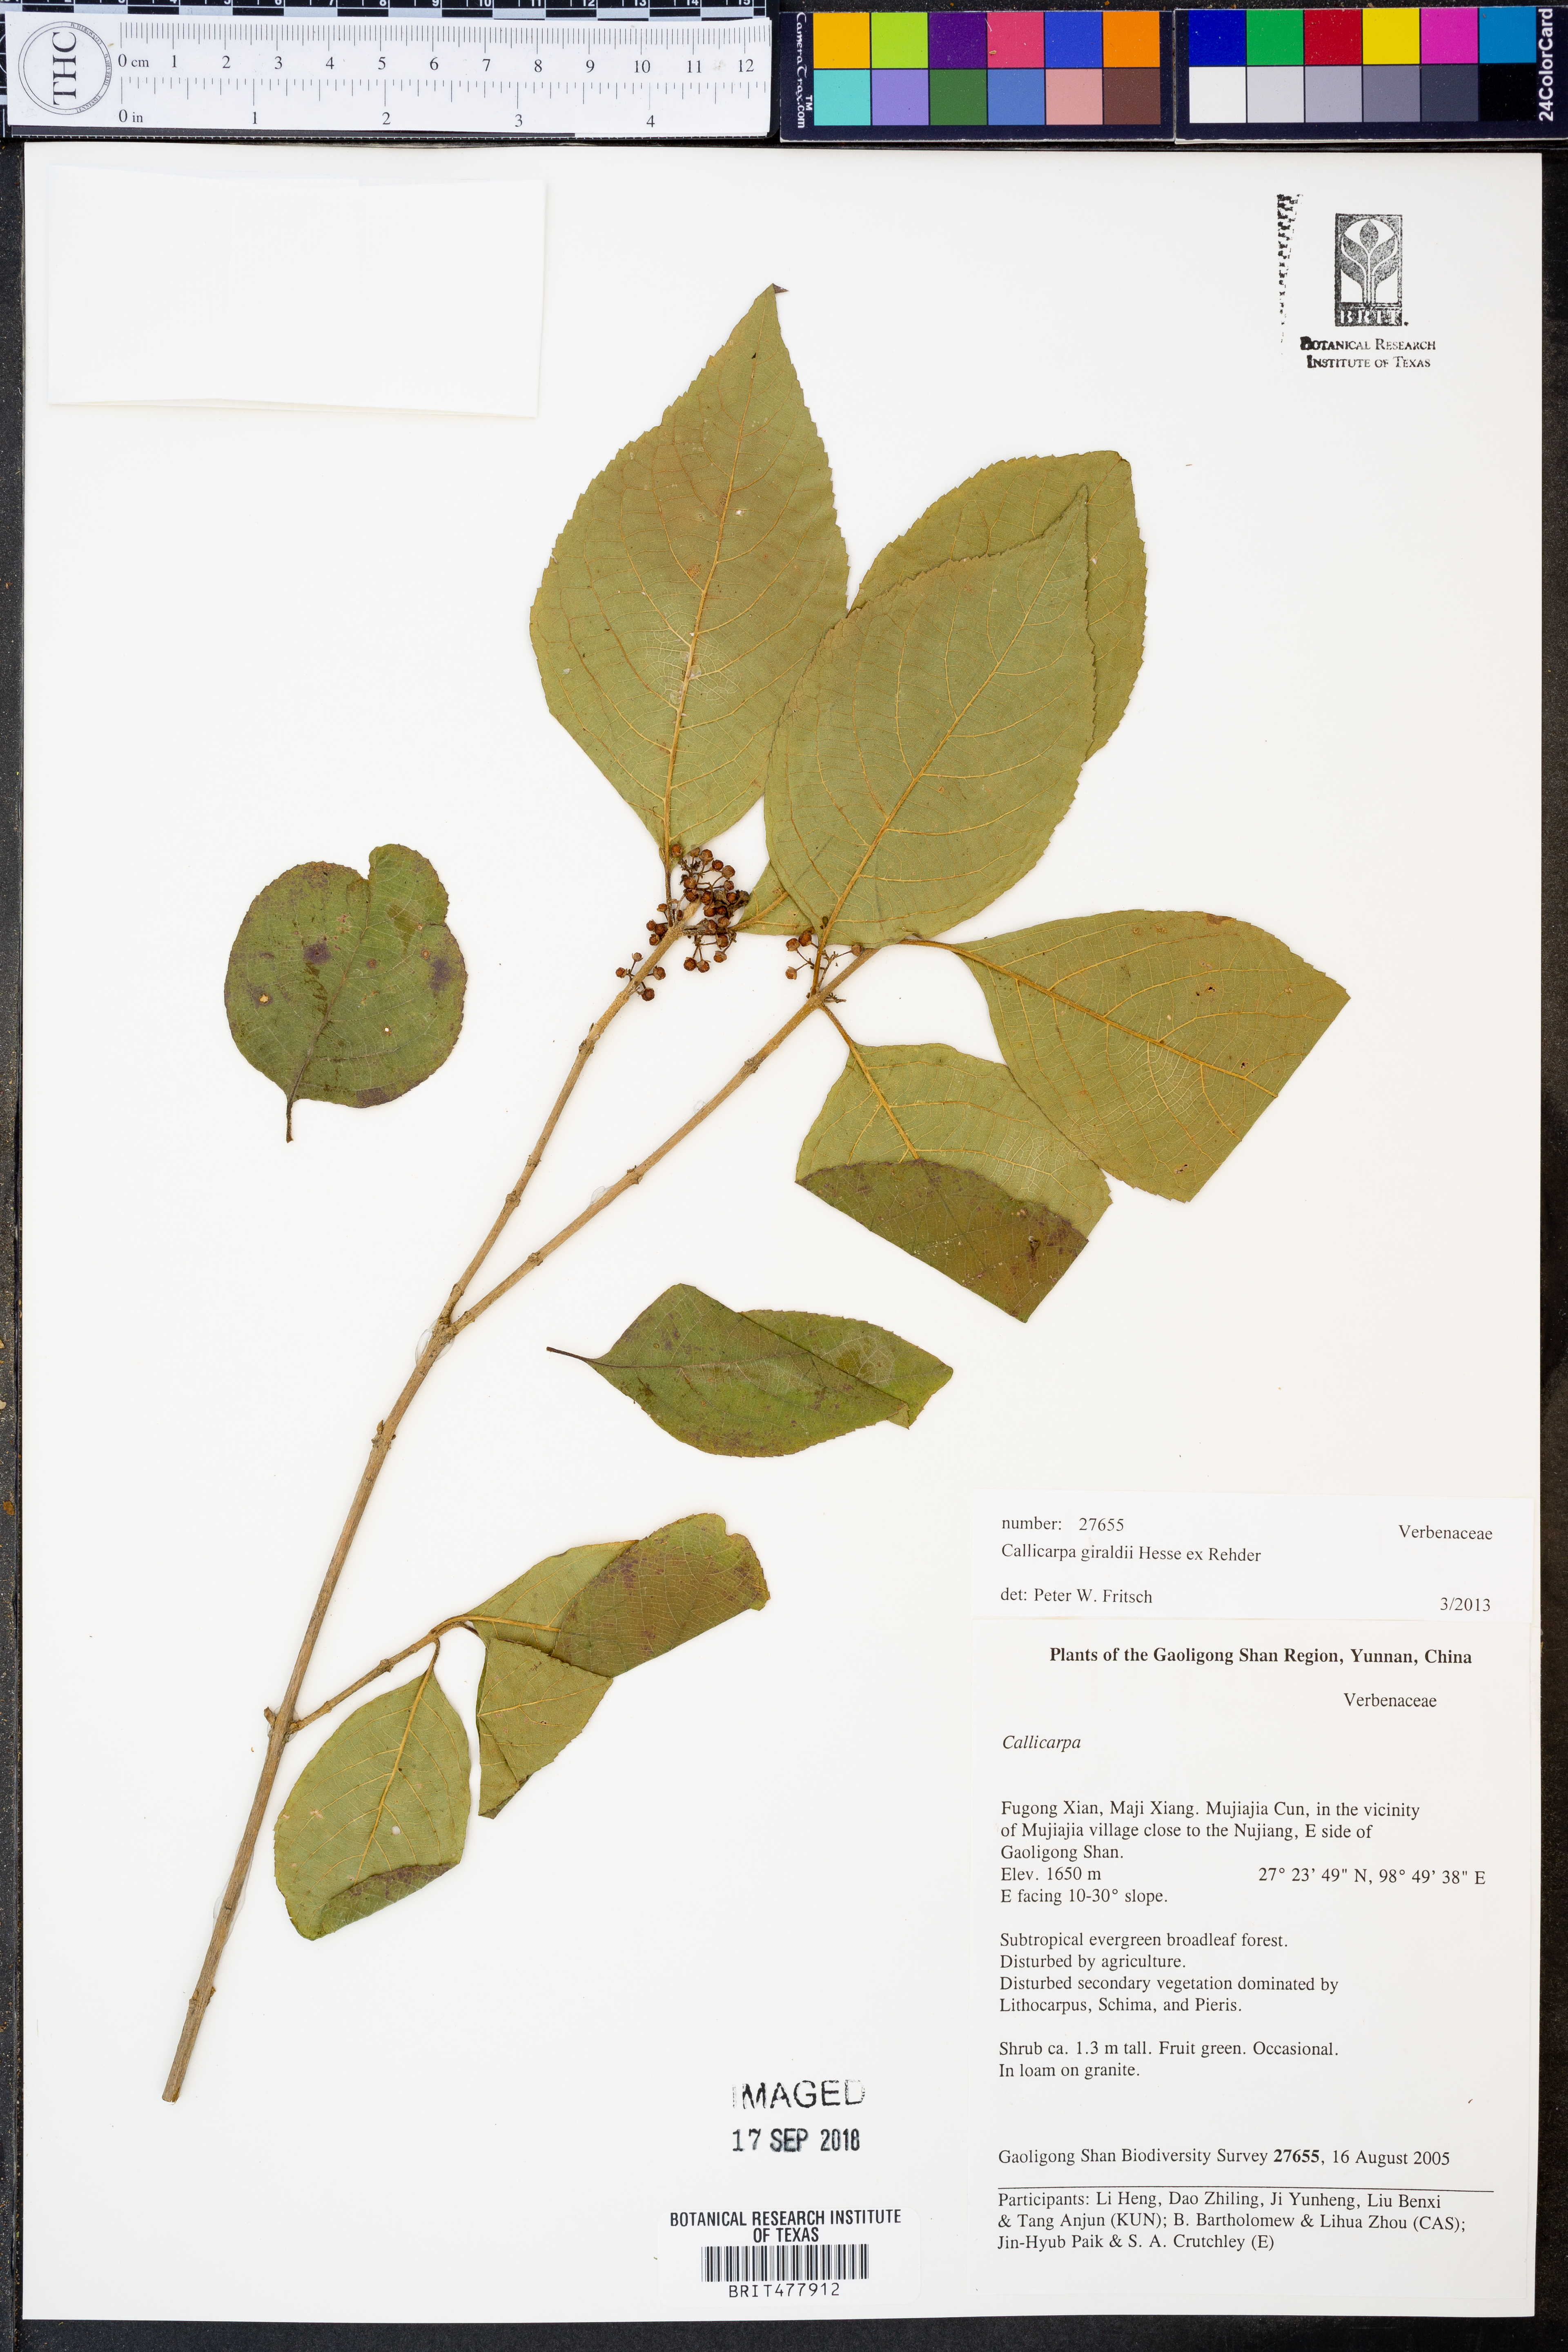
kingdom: Plantae
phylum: Tracheophyta
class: Magnoliopsida
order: Lamiales
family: Lamiaceae
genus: Callicarpa
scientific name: Callicarpa giraldii
